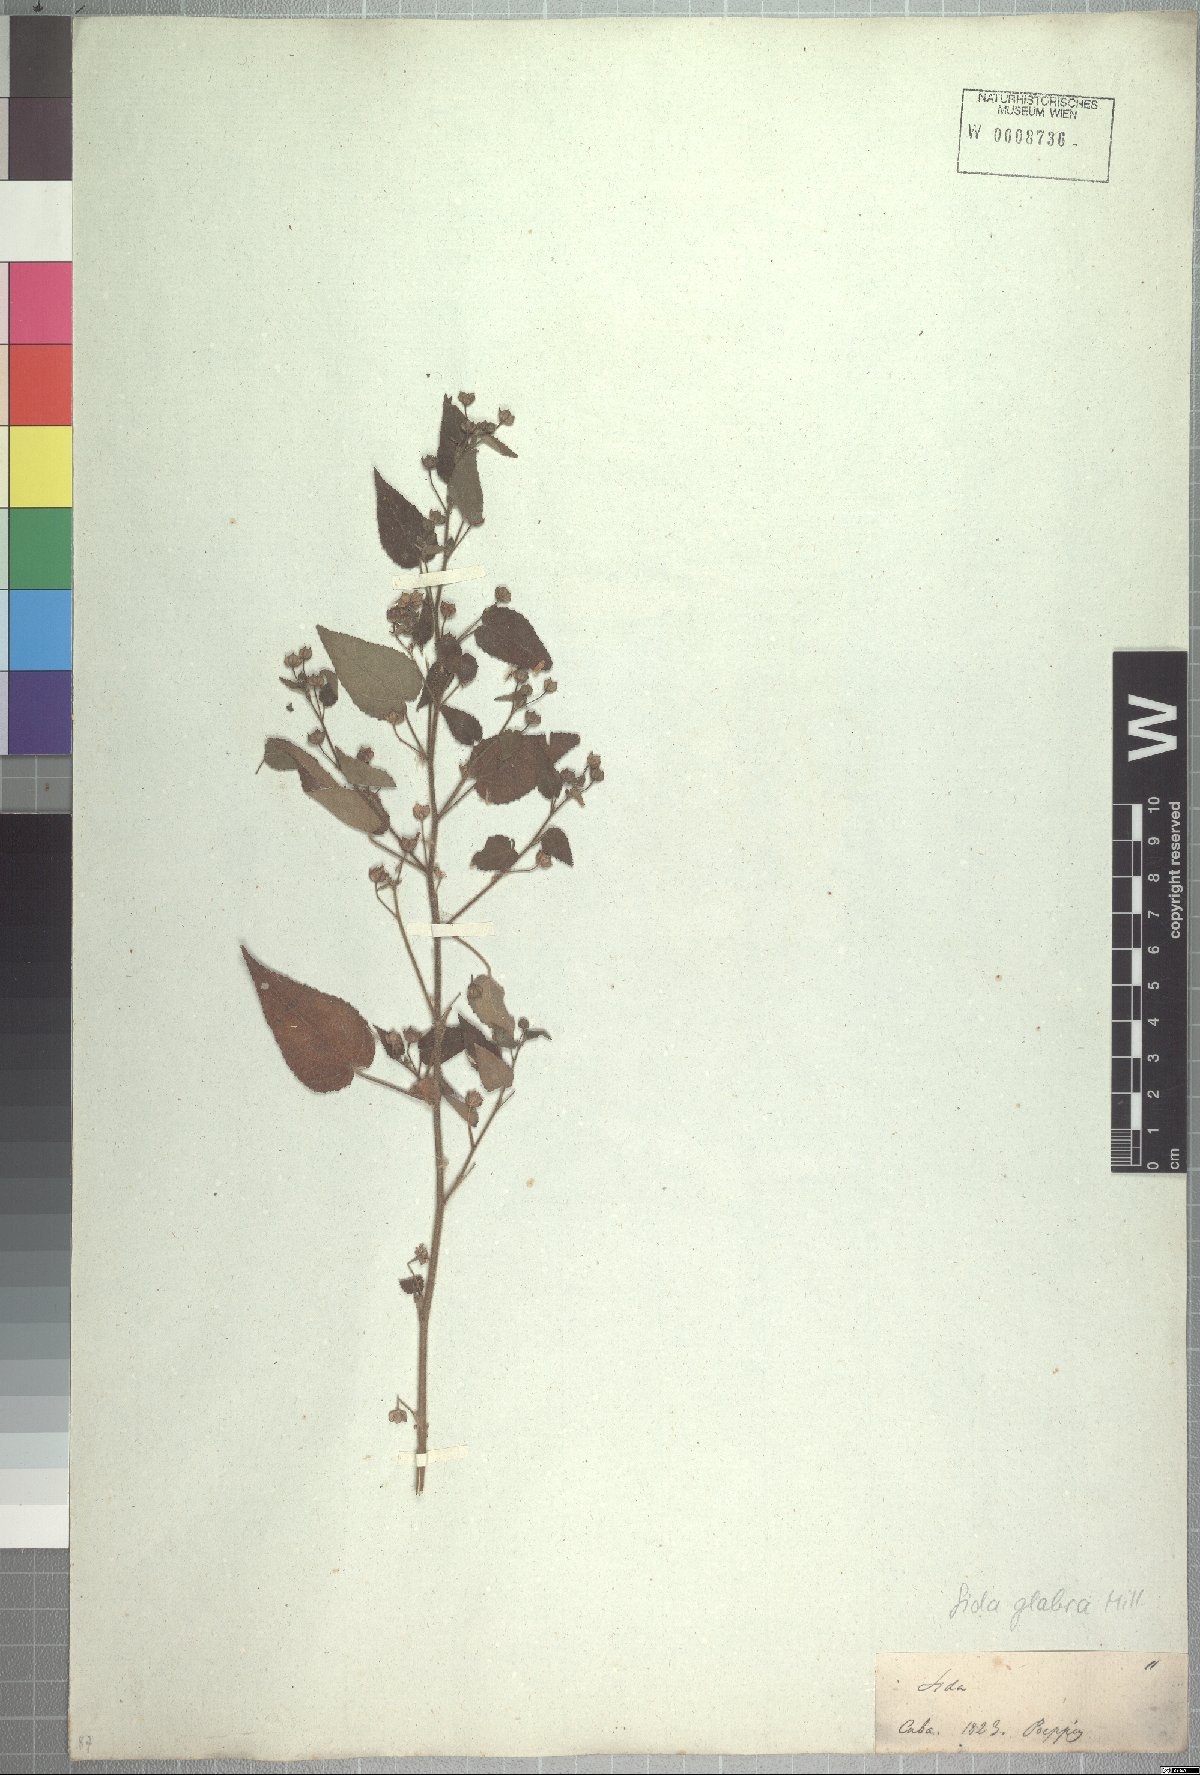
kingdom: Plantae
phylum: Tracheophyta
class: Magnoliopsida
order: Malvales
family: Malvaceae
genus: Sida
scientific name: Sida glabra
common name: Smooth fanpetals
